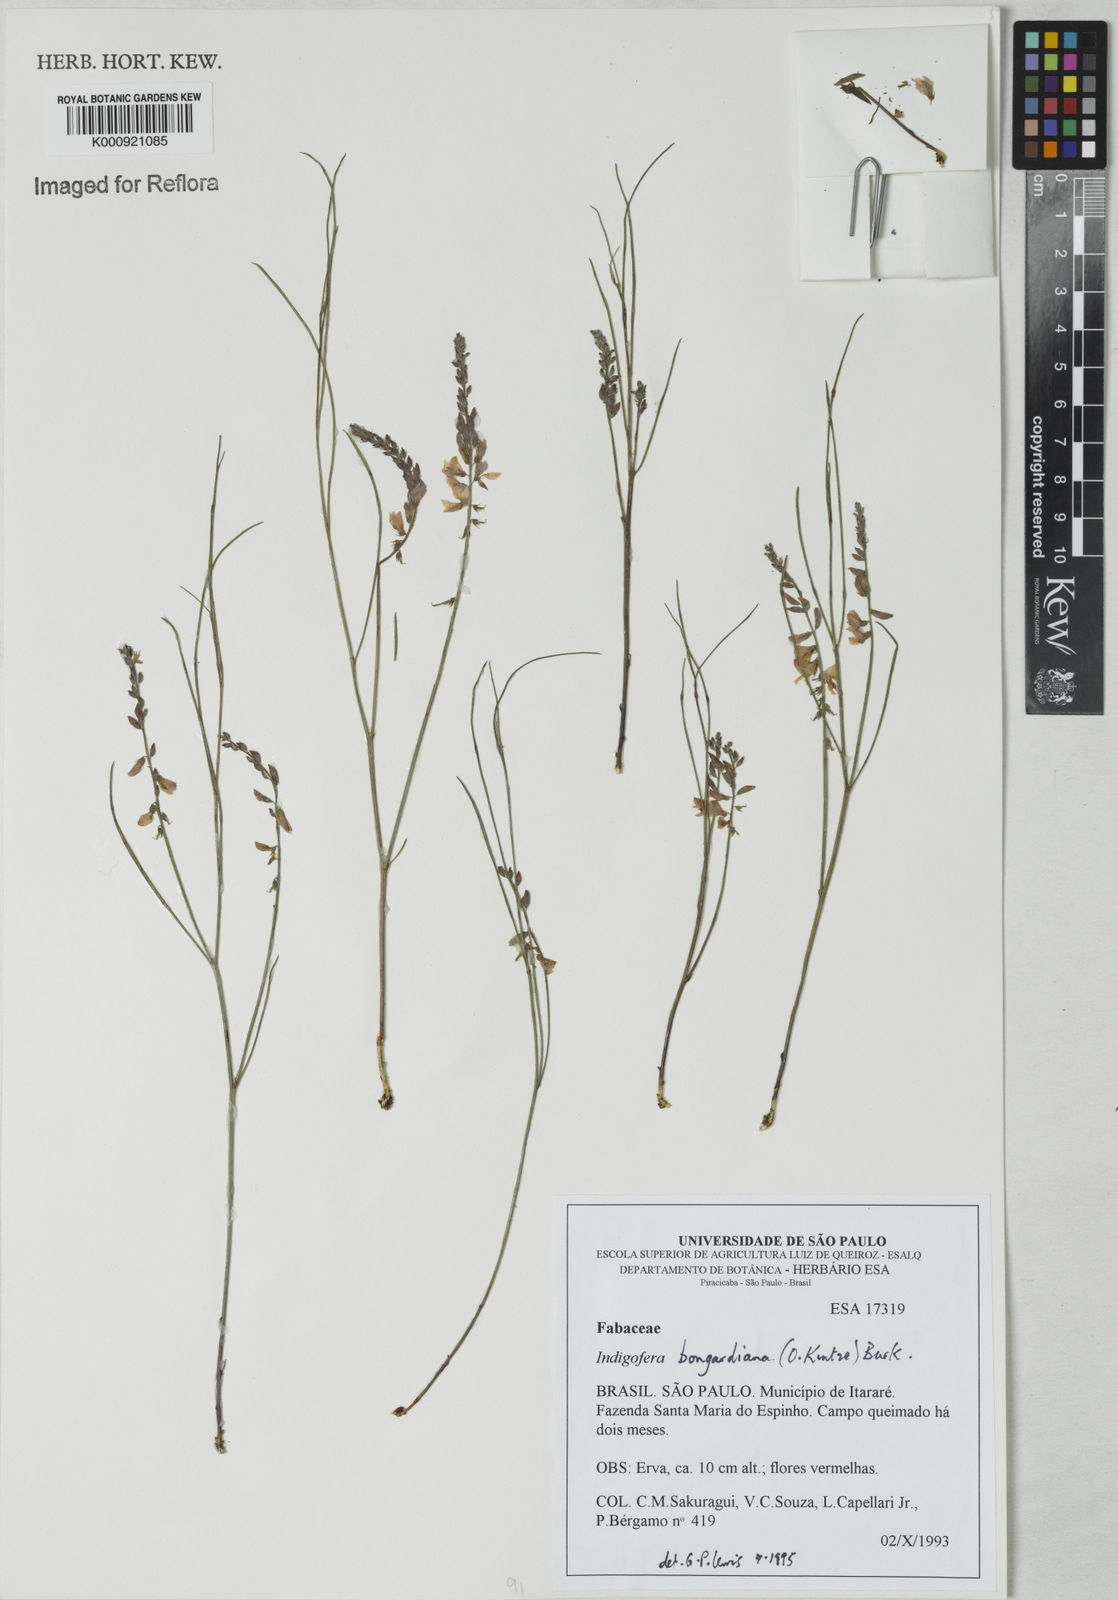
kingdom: Plantae
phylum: Tracheophyta
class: Magnoliopsida
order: Fabales
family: Fabaceae
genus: Indigofera
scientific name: Indigofera bongardiana
